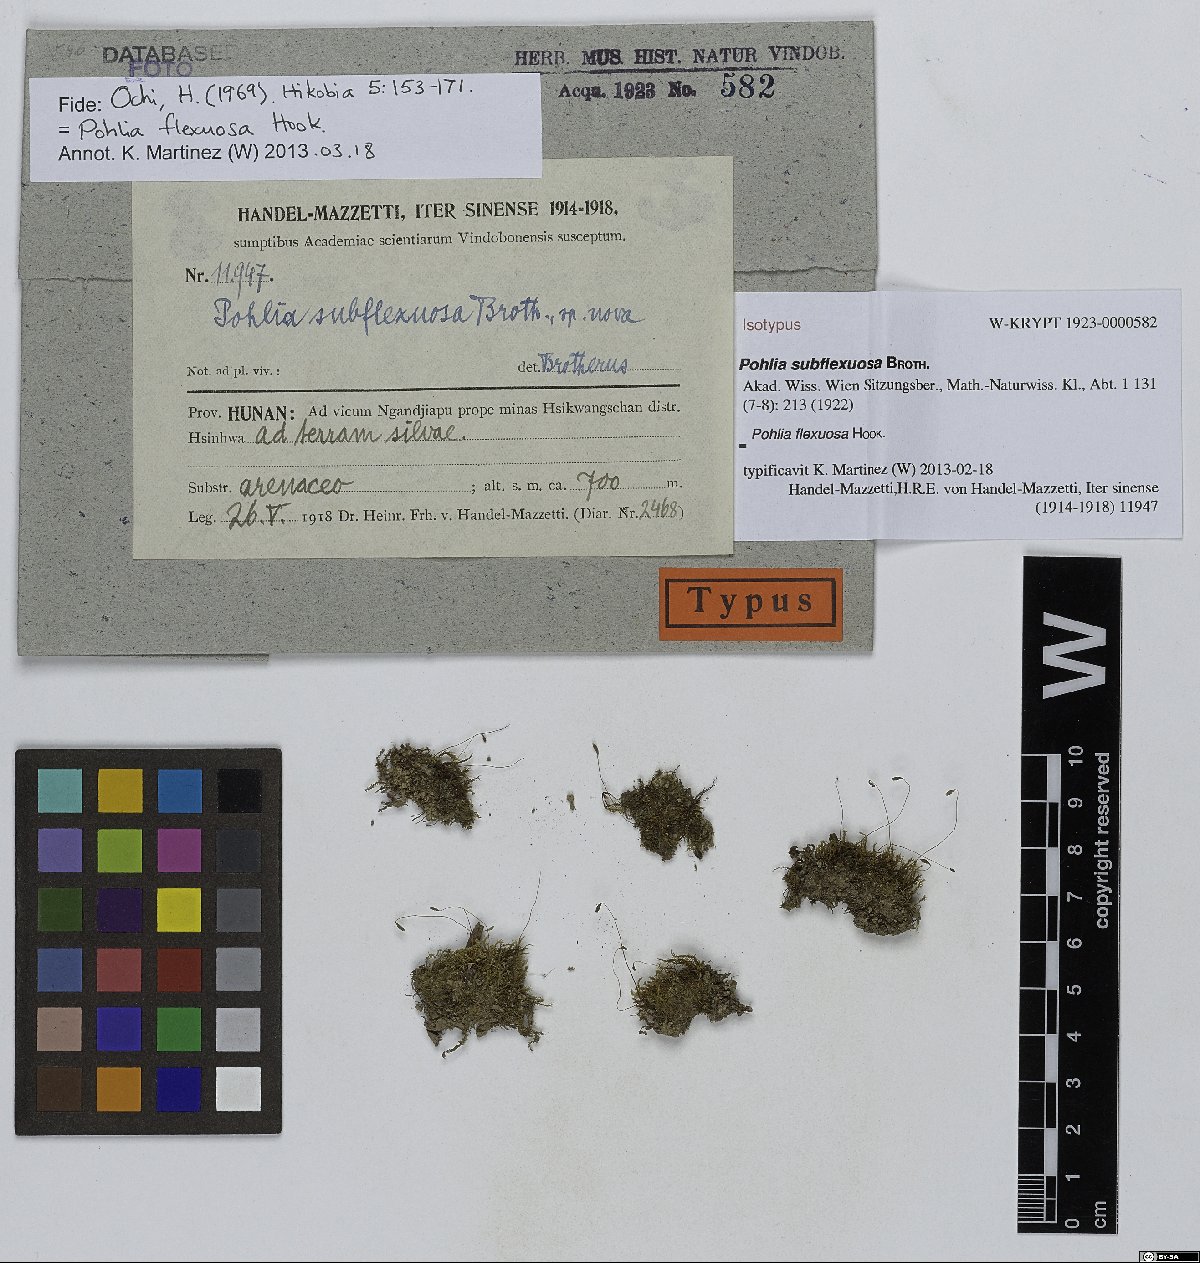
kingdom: Plantae
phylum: Bryophyta
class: Bryopsida
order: Bryales
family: Mniaceae
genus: Pohlia
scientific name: Pohlia flexuosa
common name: Orange-bud thread-moss
